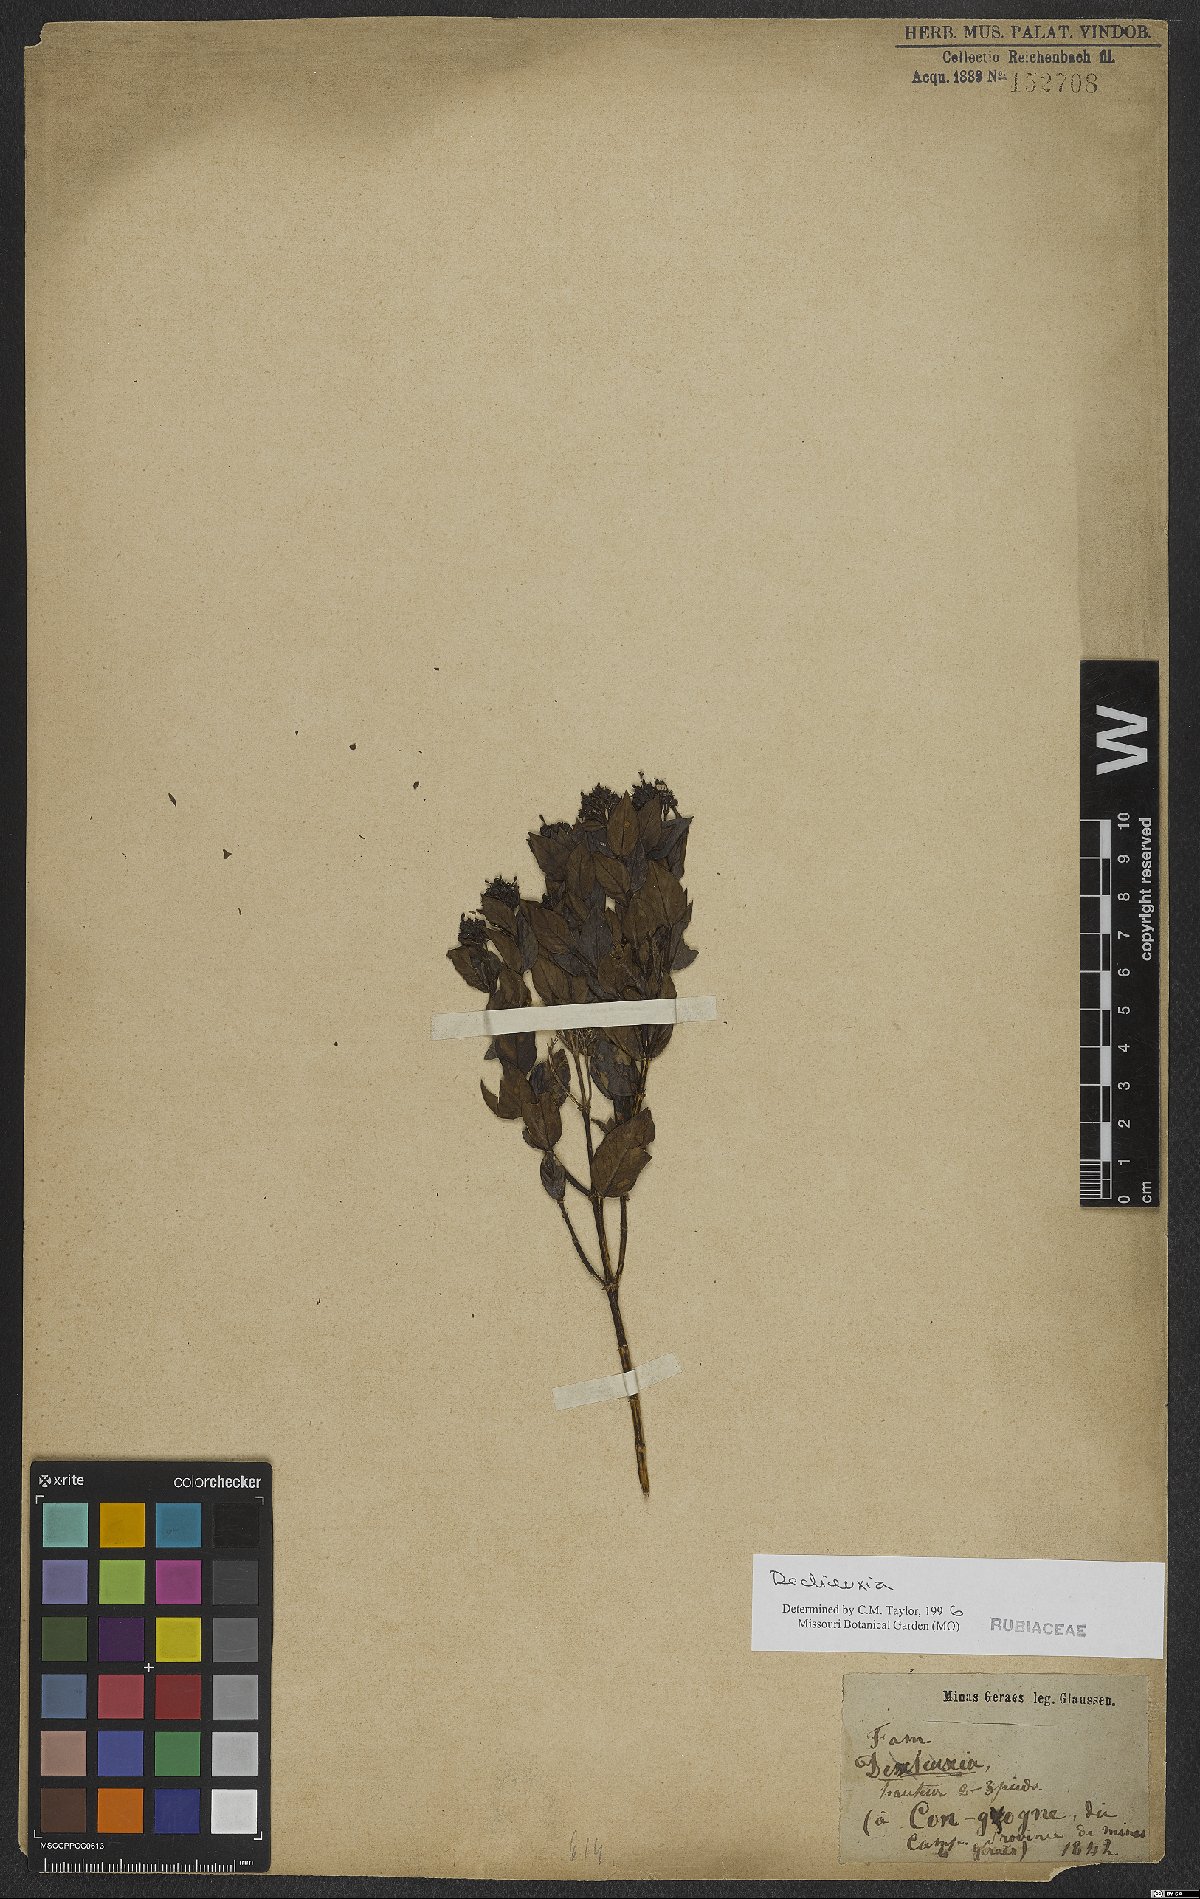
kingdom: Plantae
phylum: Tracheophyta
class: Magnoliopsida
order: Gentianales
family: Rubiaceae
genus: Declieuxia
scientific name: Declieuxia
